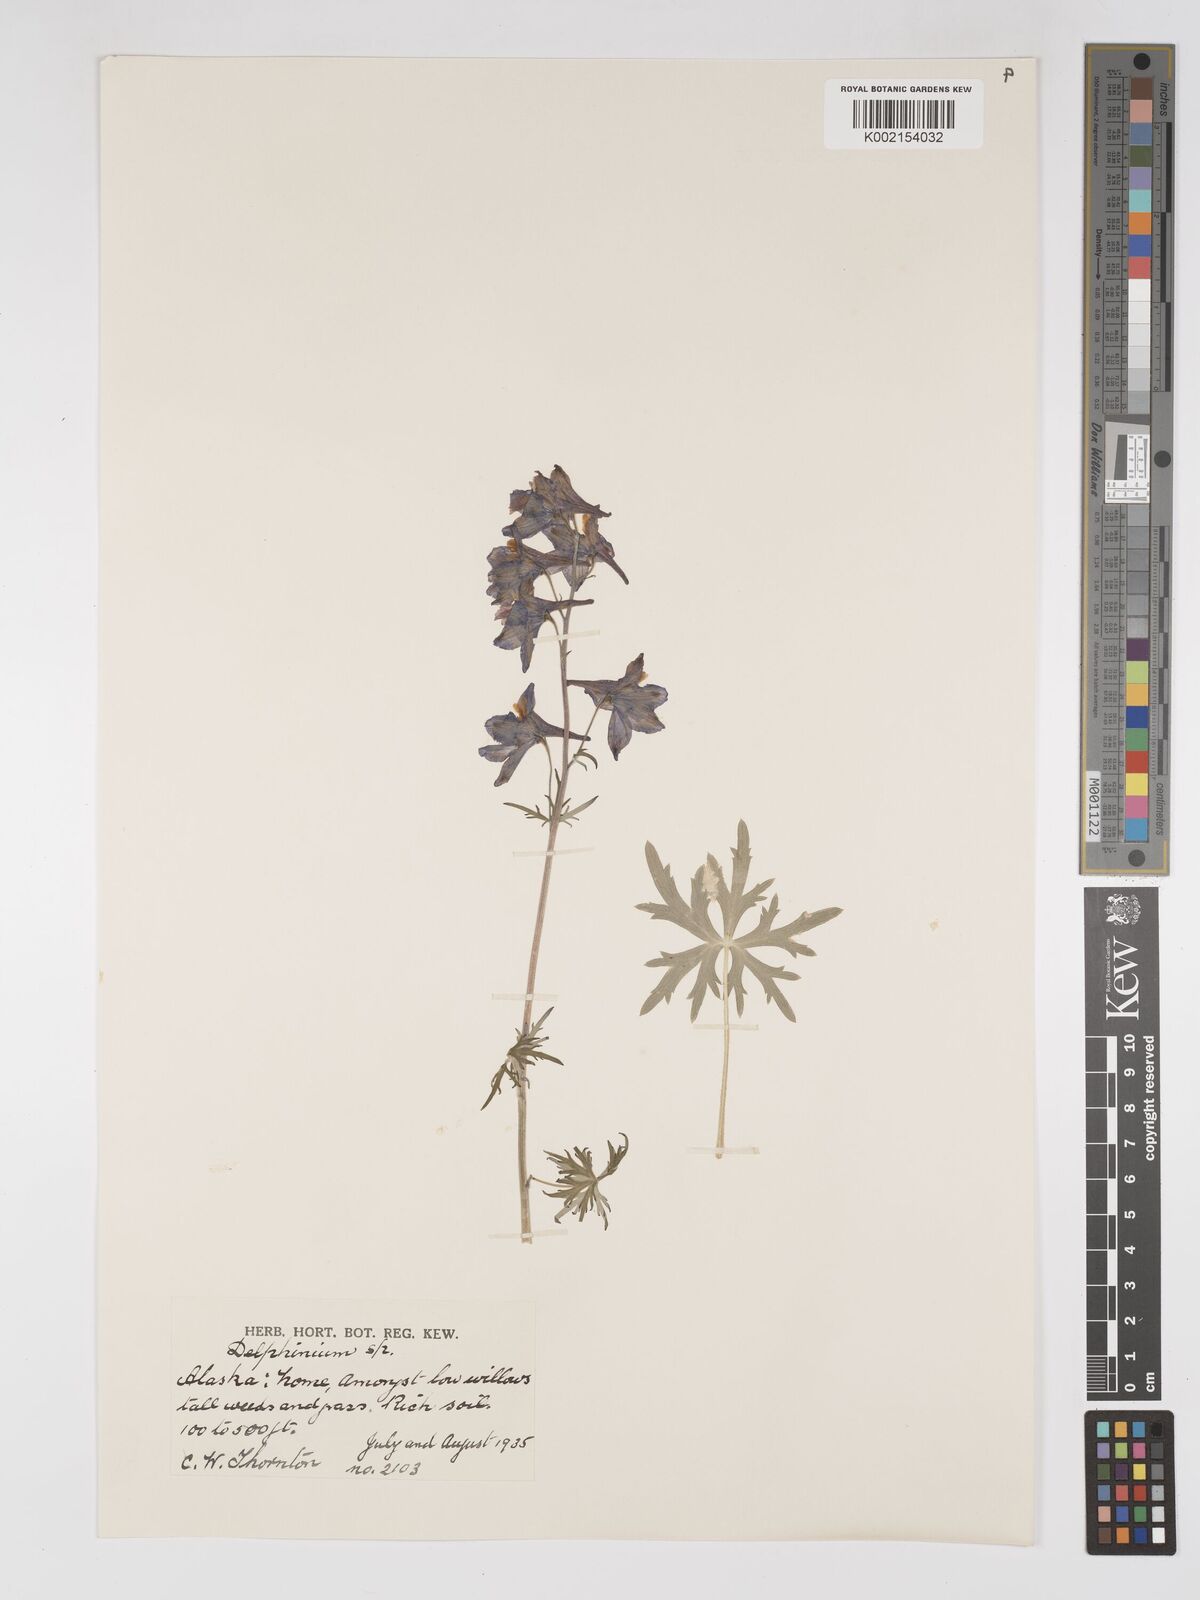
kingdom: Plantae
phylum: Tracheophyta
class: Magnoliopsida
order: Ranunculales
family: Ranunculaceae
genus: Delphinium
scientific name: Delphinium
